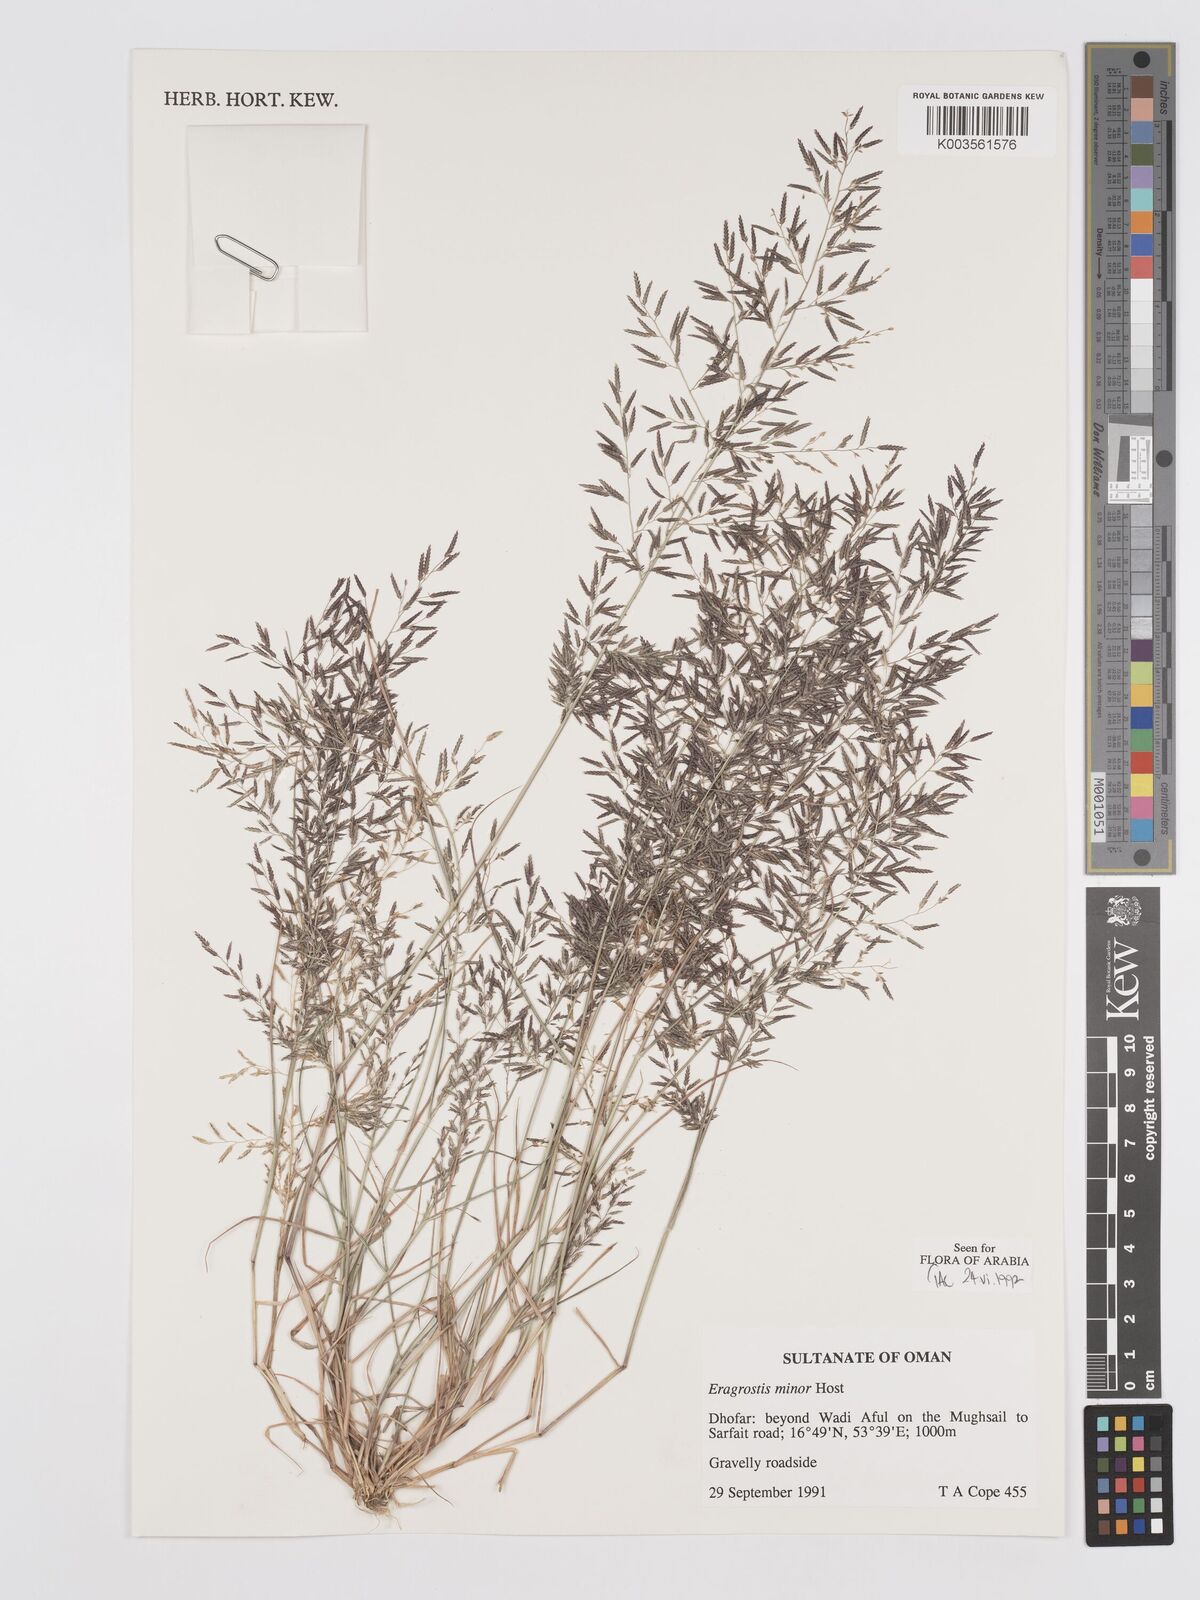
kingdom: Plantae
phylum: Tracheophyta
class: Liliopsida
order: Poales
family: Poaceae
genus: Eragrostis
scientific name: Eragrostis minor
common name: Small love-grass
